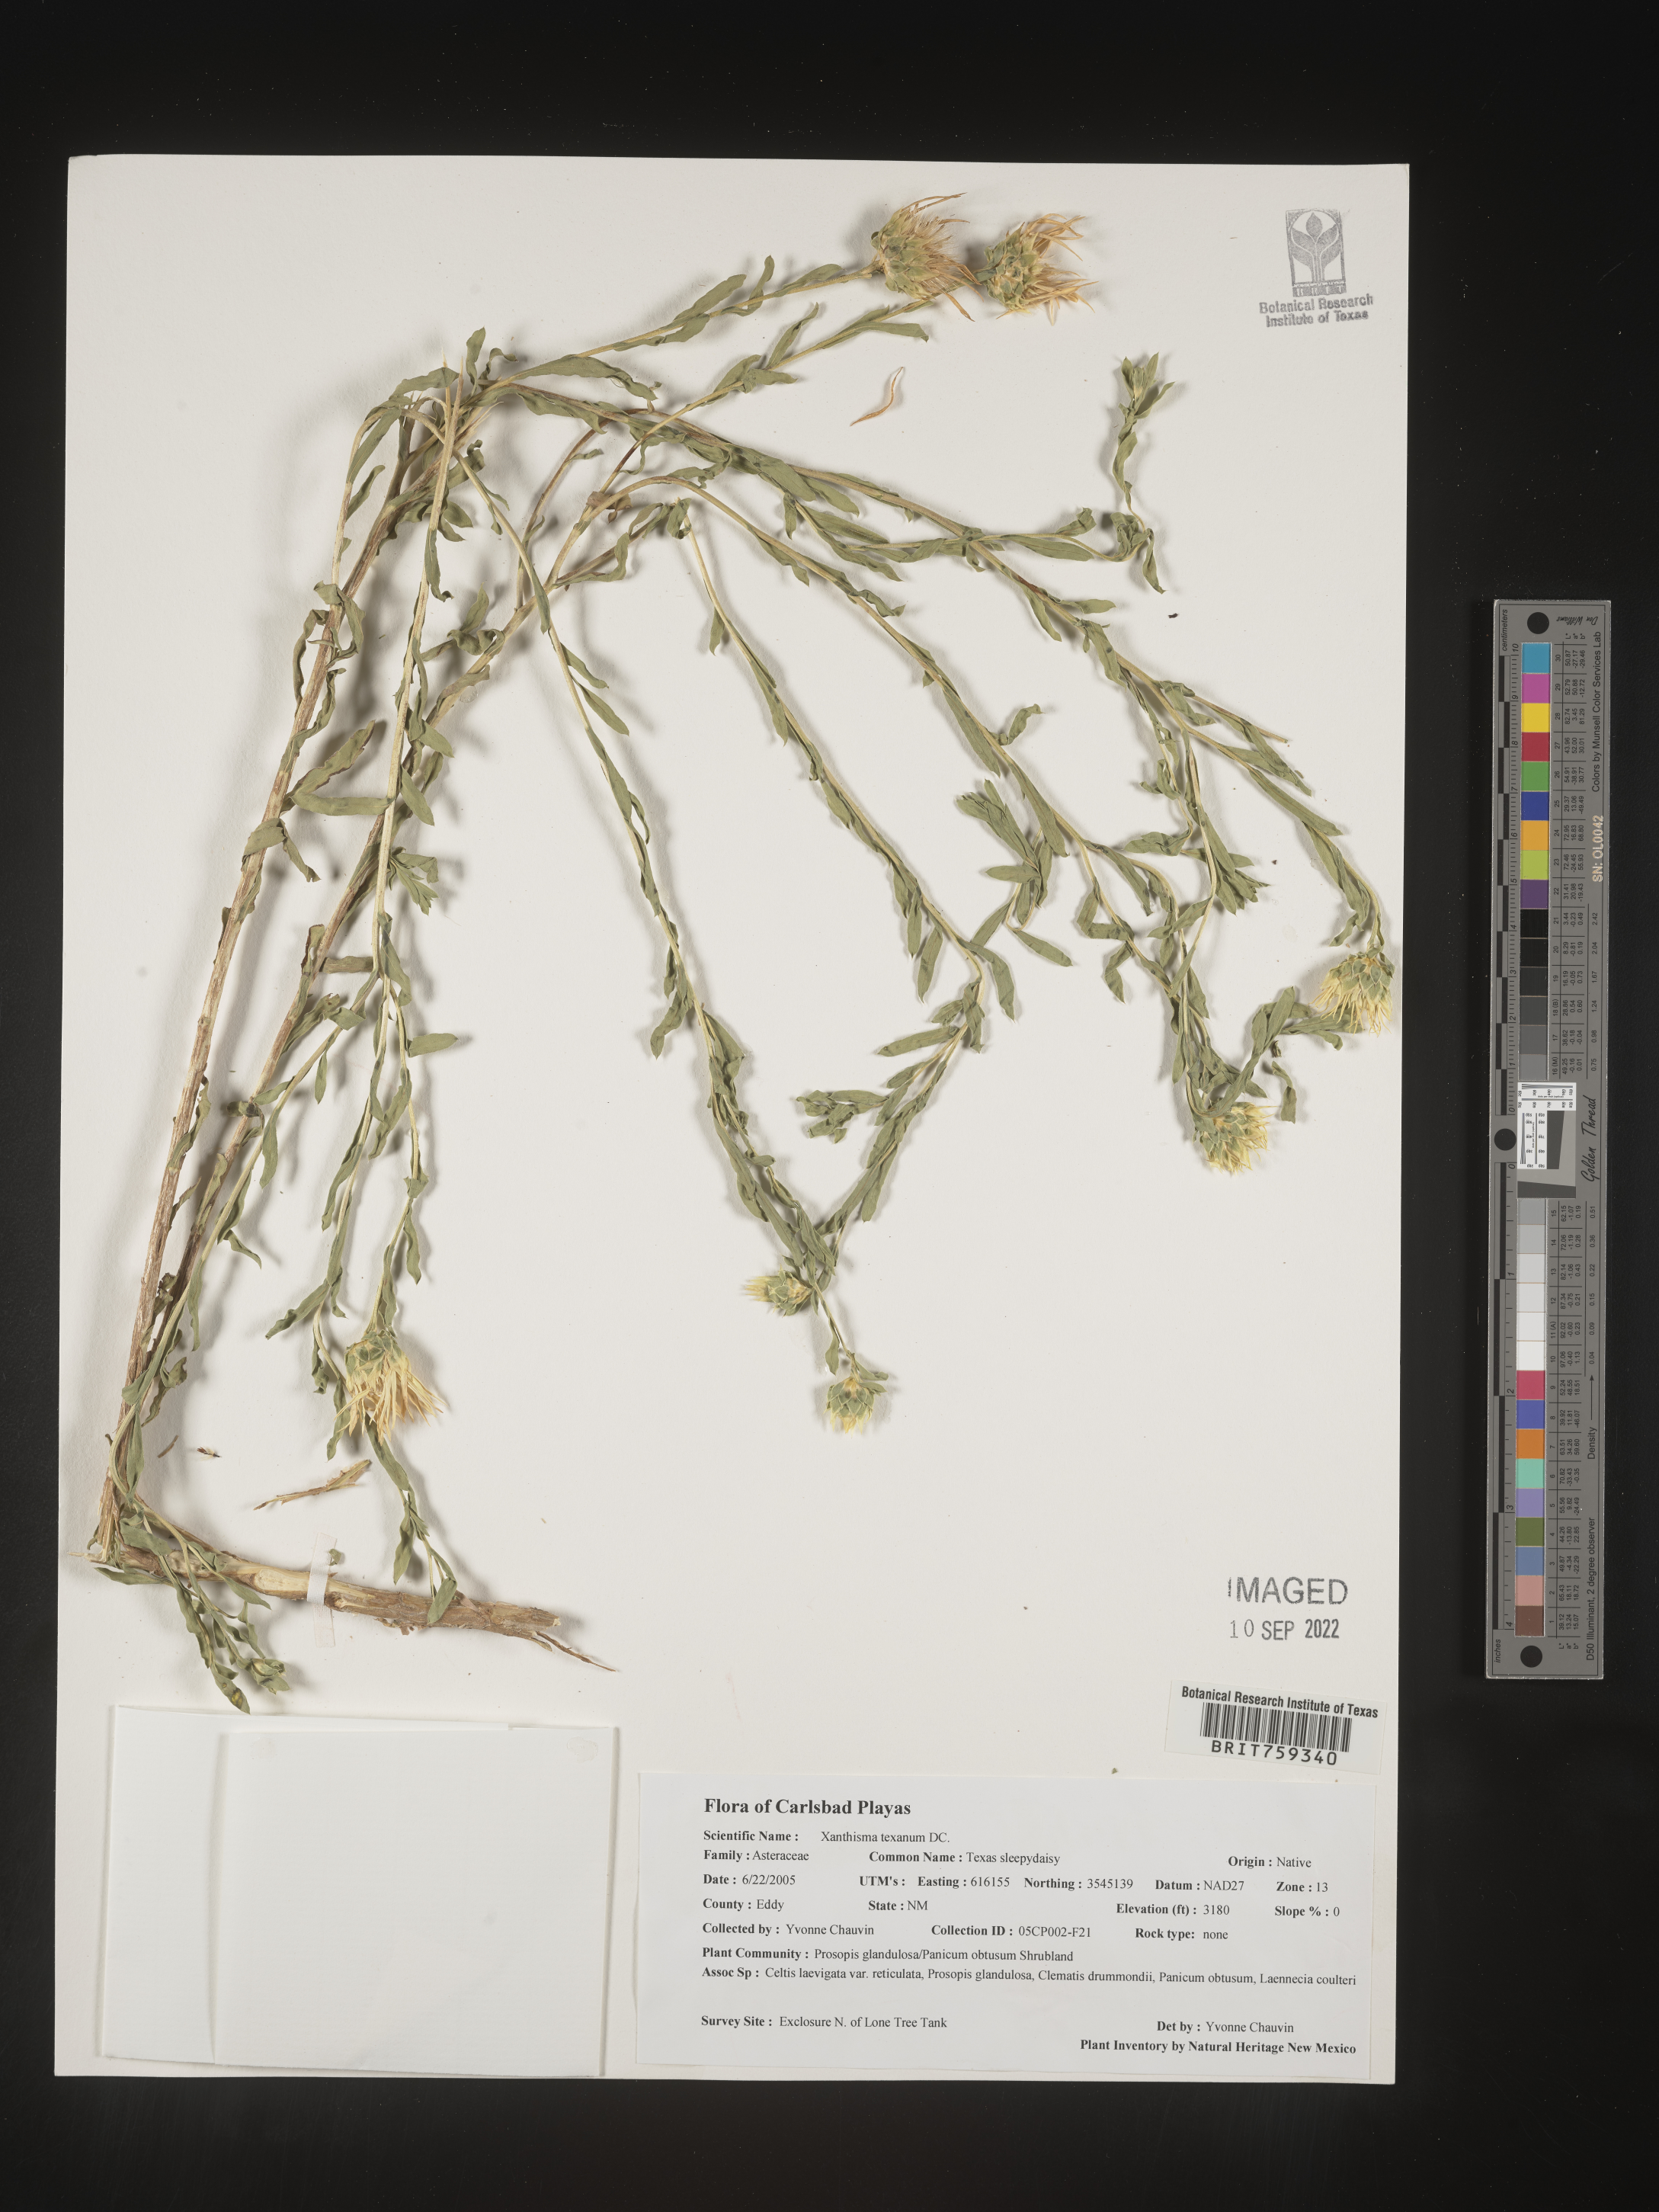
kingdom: Plantae
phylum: Tracheophyta
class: Magnoliopsida
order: Asterales
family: Asteraceae
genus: Xanthisma
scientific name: Xanthisma texanum
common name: Texas sleepy daisy
